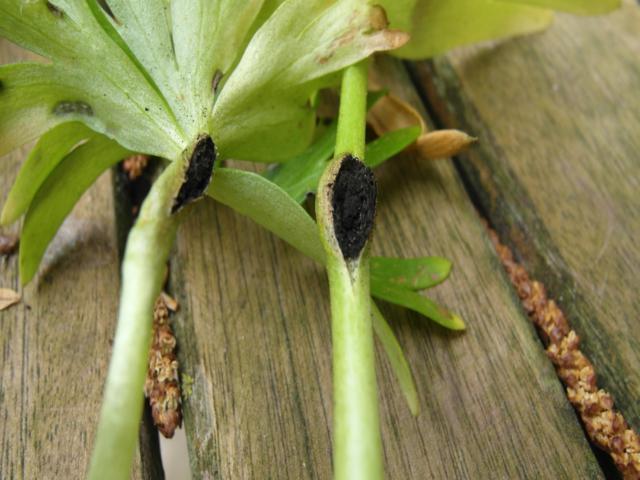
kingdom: Fungi
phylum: Basidiomycota
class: Ustilaginomycetes
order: Urocystidales
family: Urocystidaceae
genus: Urocystis
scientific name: Urocystis eranthidis
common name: erantis-brand
